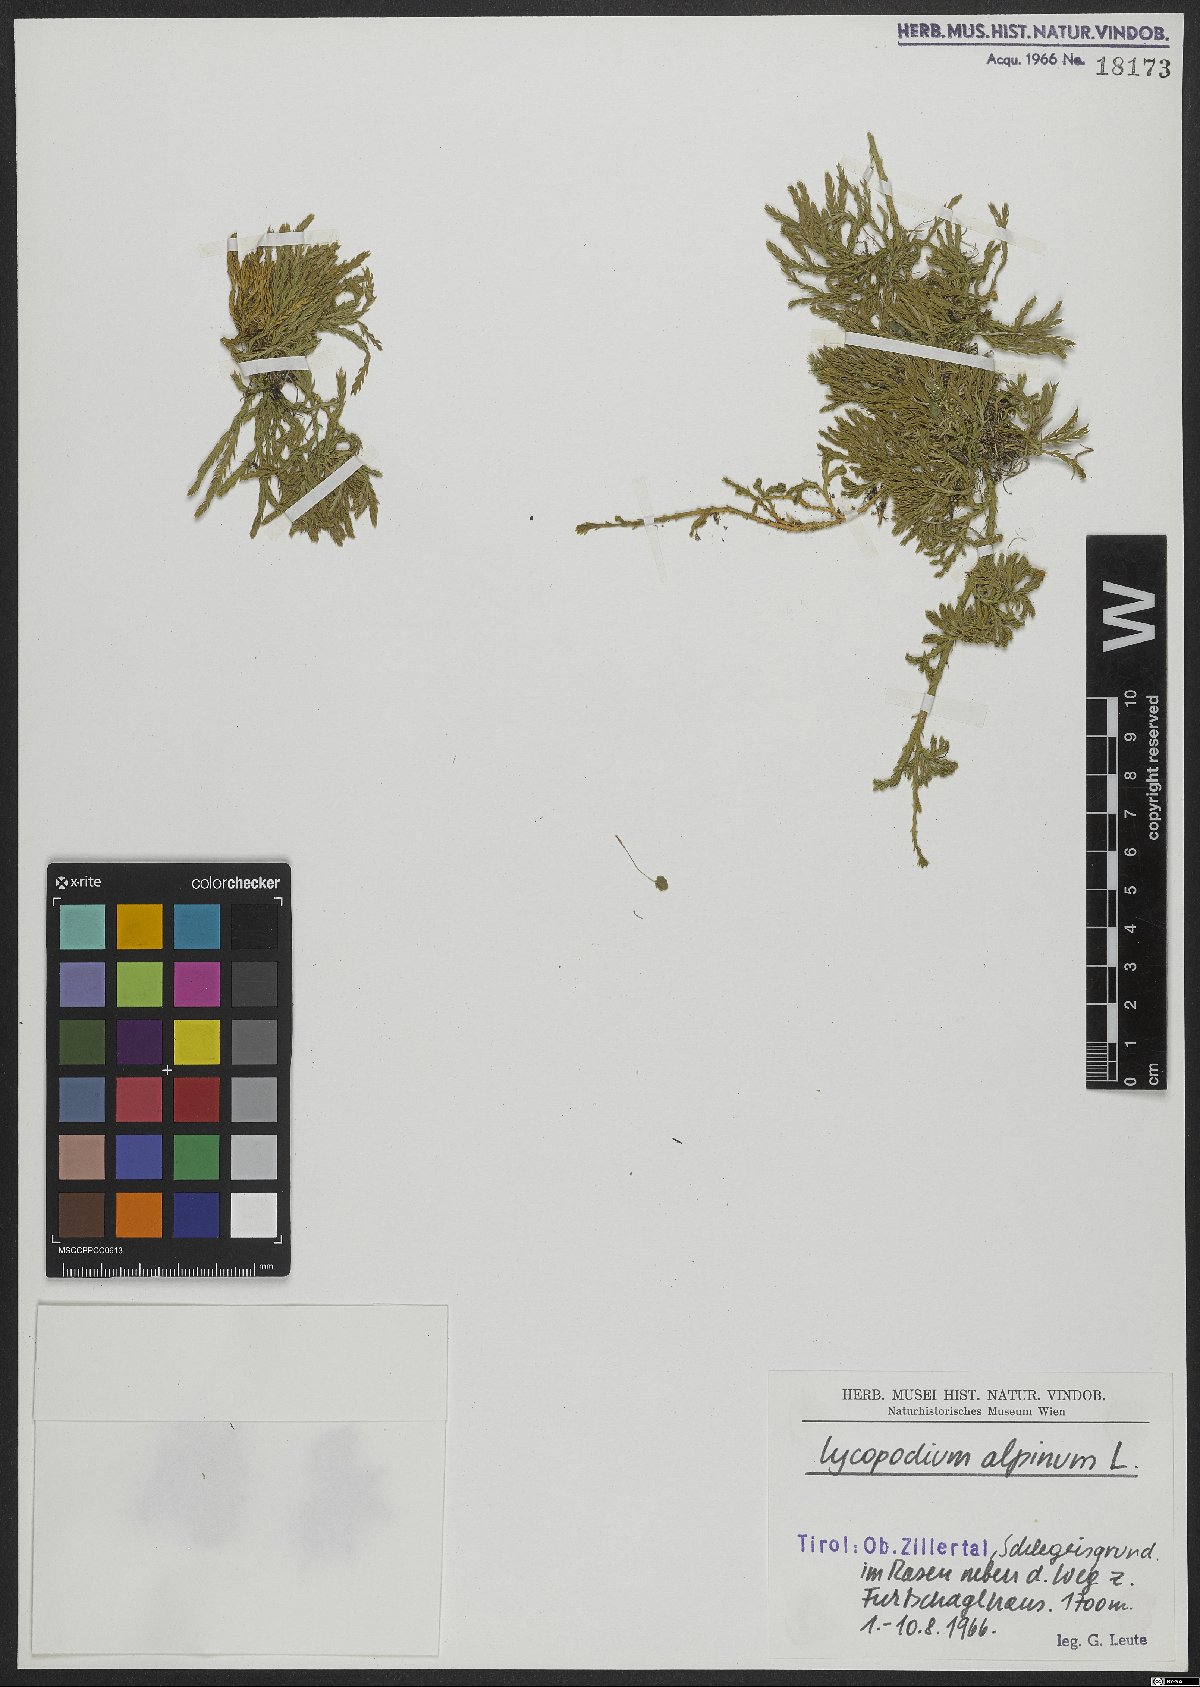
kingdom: Plantae
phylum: Tracheophyta
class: Lycopodiopsida
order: Lycopodiales
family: Lycopodiaceae
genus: Diphasiastrum
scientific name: Diphasiastrum alpinum
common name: Alpine clubmoss
